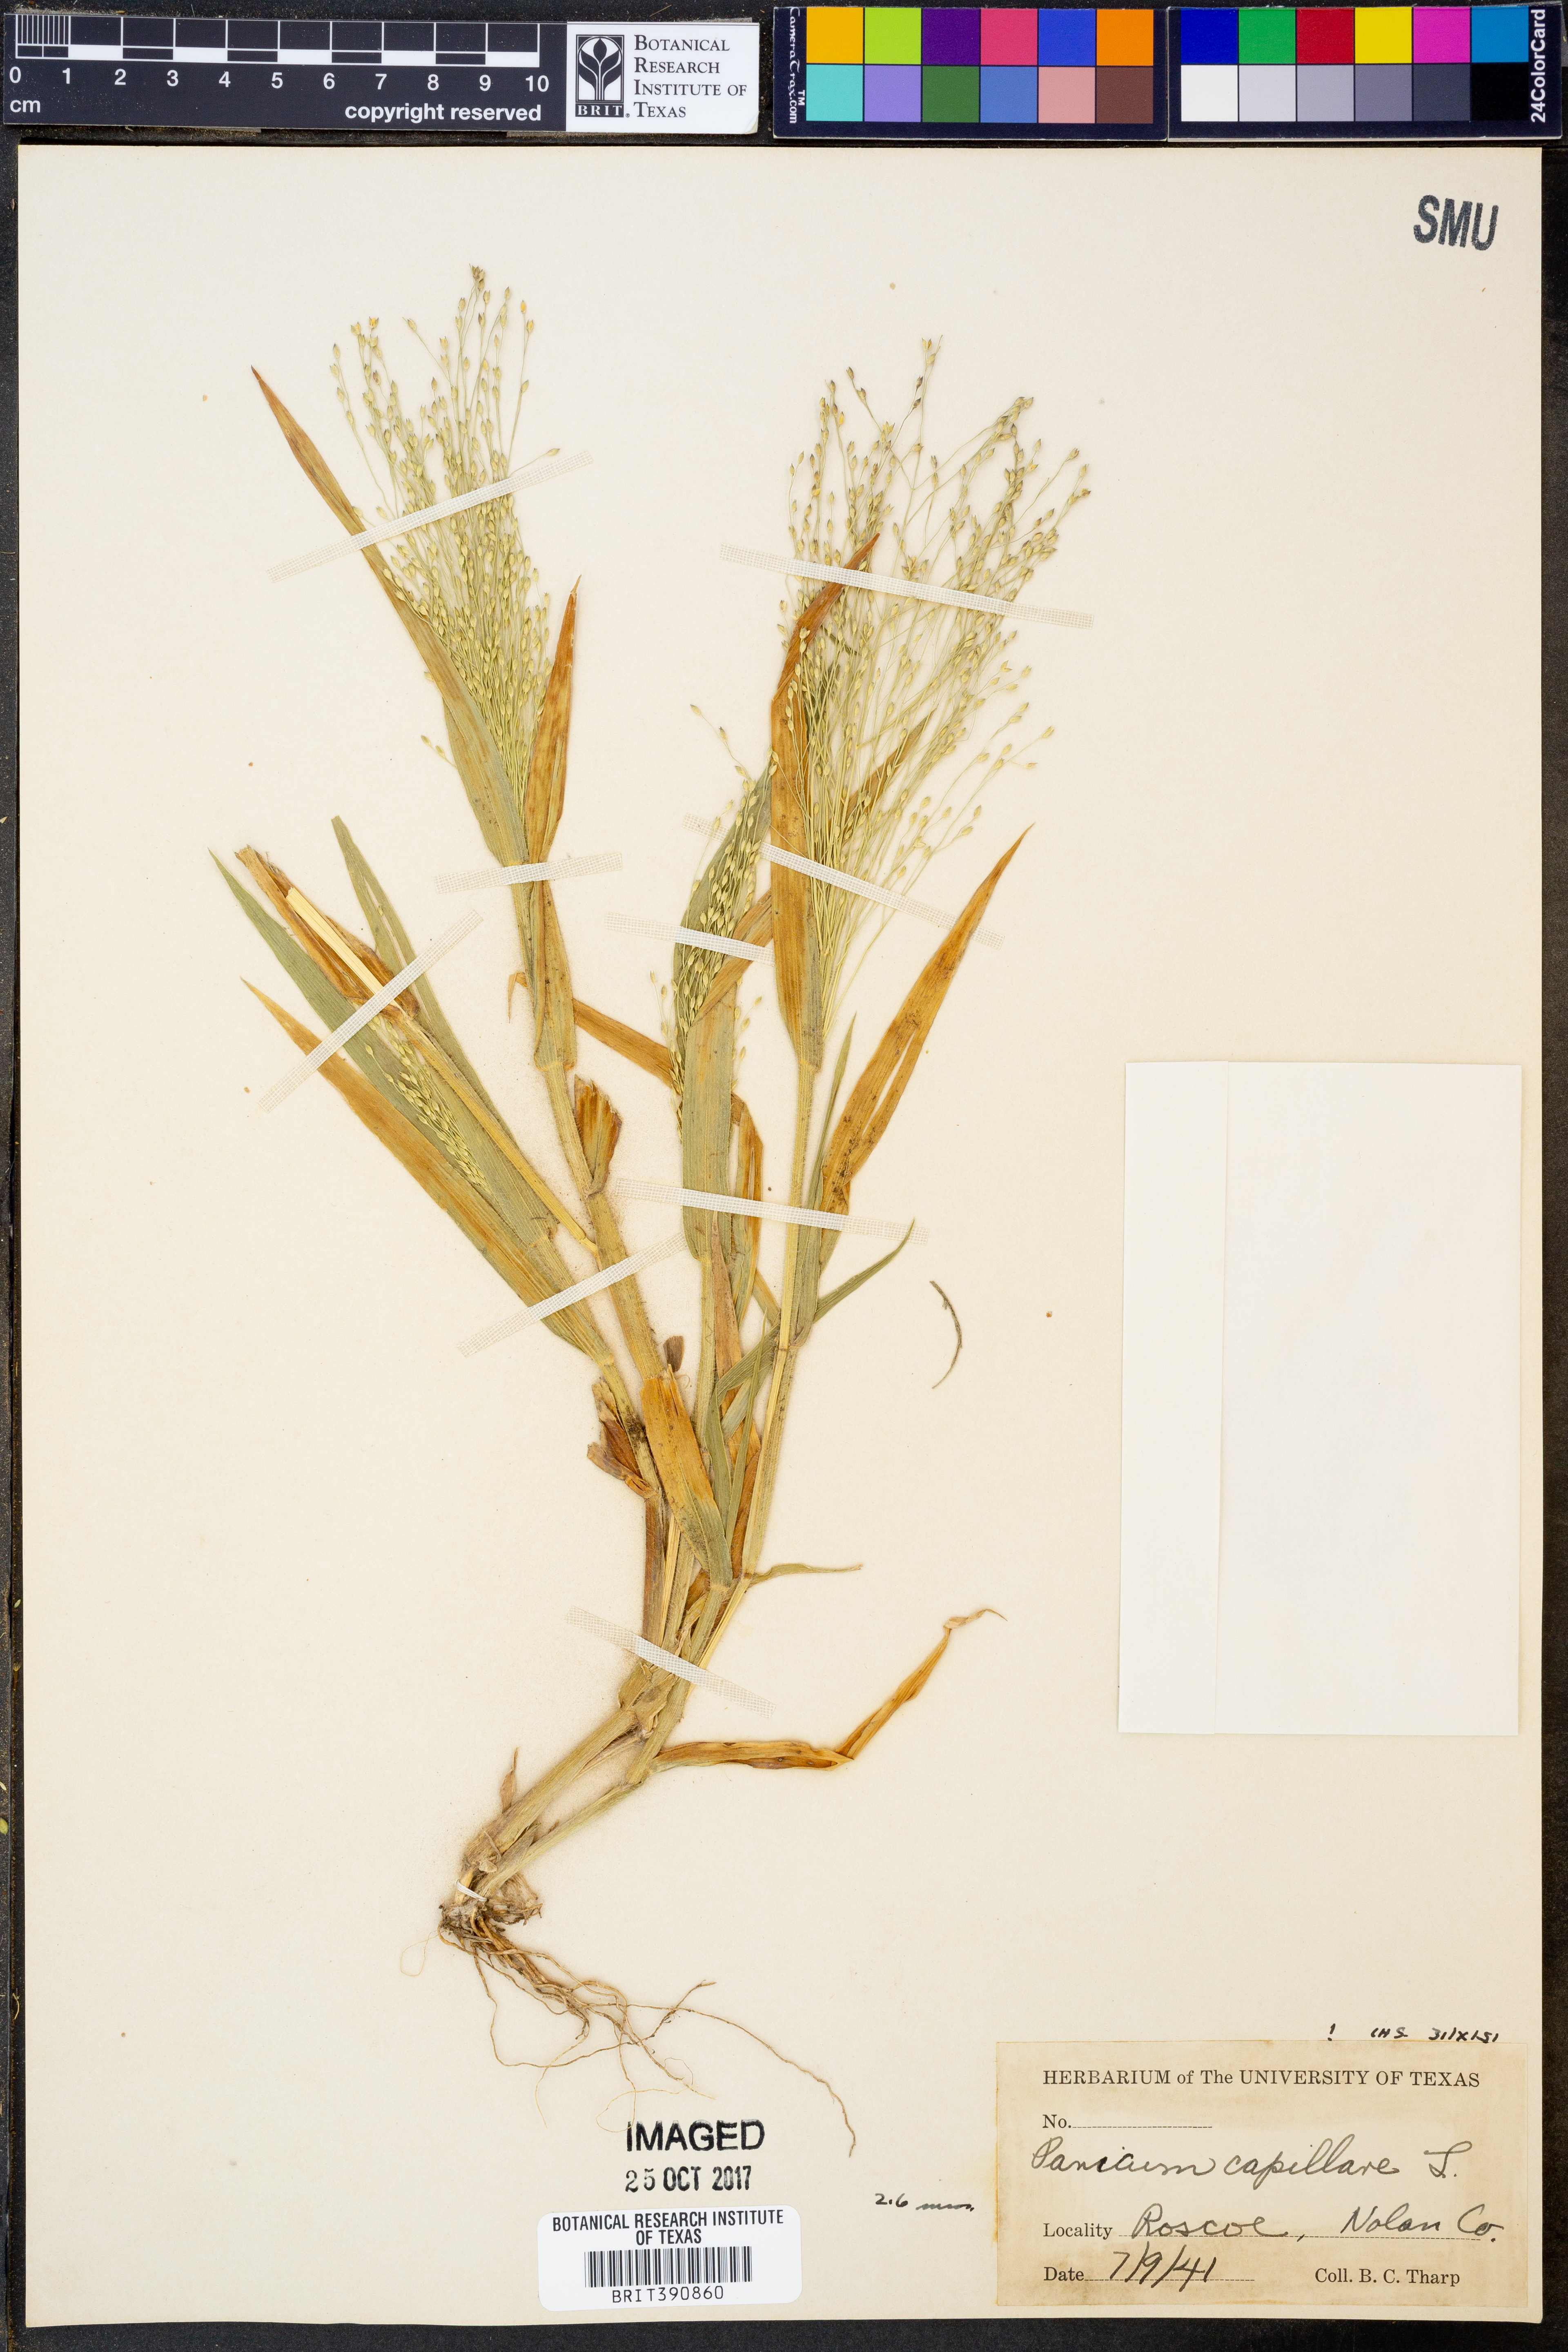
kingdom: Plantae
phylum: Tracheophyta
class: Liliopsida
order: Poales
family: Poaceae
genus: Panicum
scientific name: Panicum capillare
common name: Witch-grass
